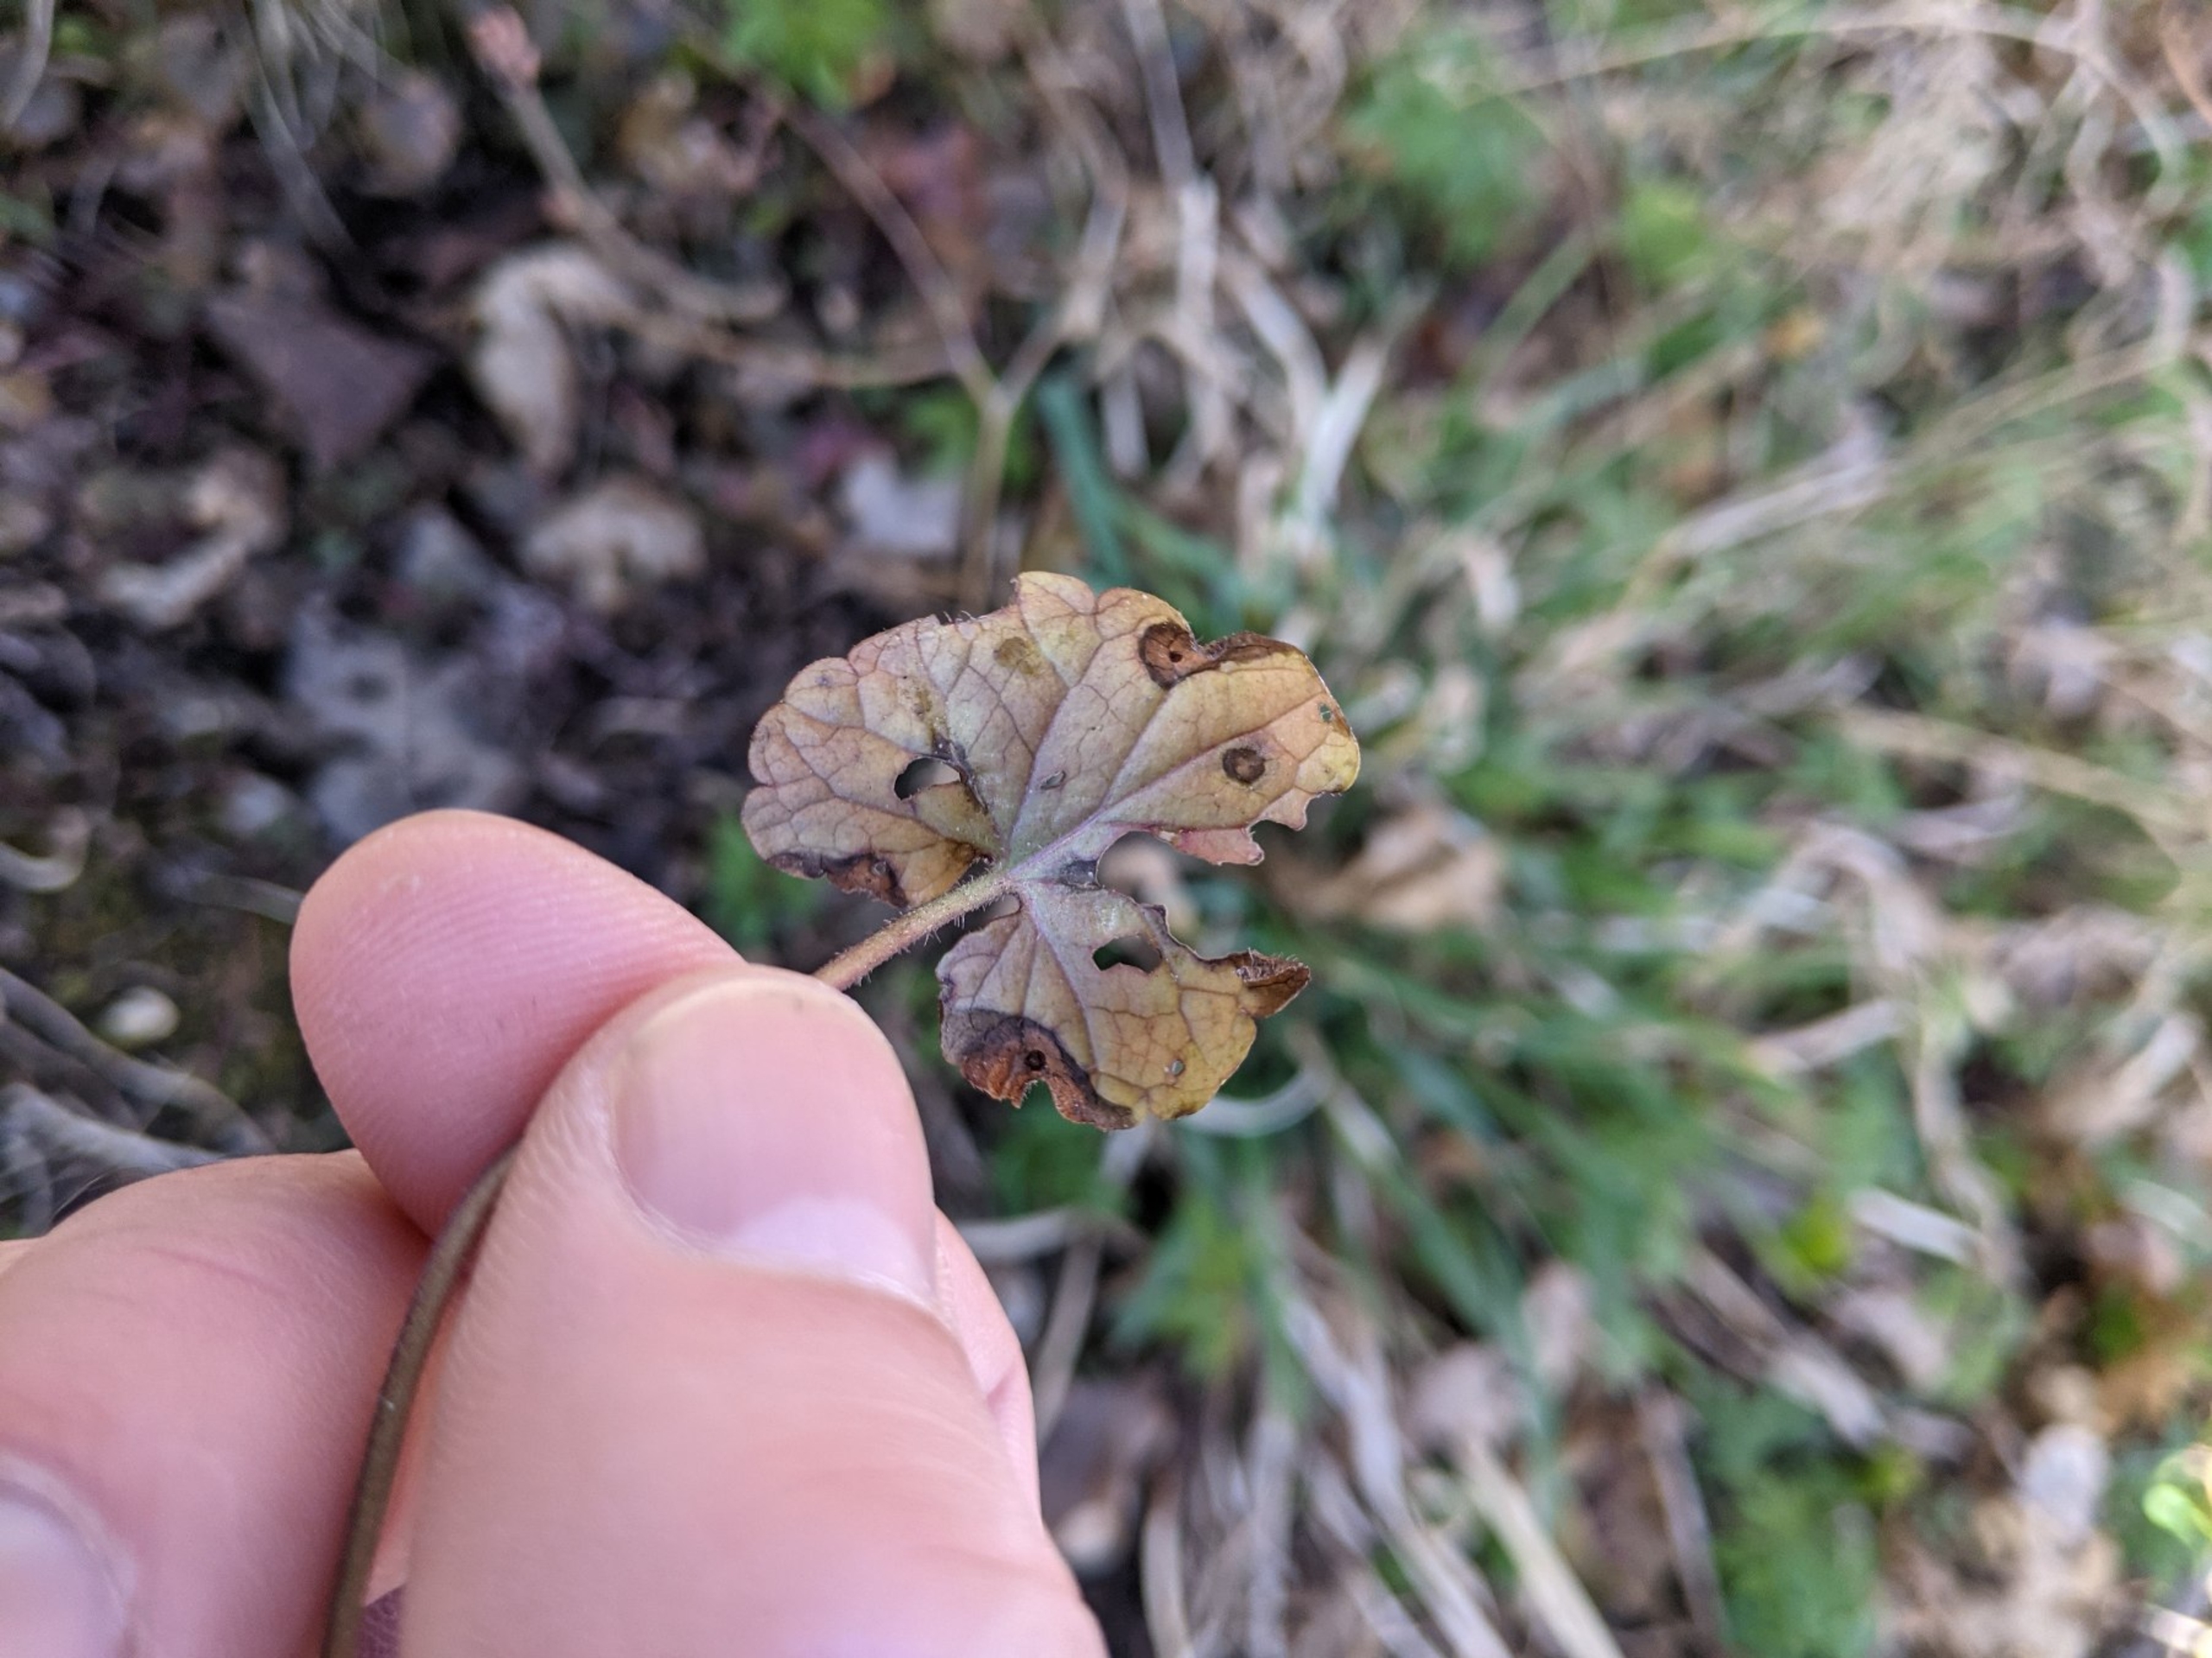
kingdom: Plantae
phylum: Tracheophyta
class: Magnoliopsida
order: Lamiales
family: Lamiaceae
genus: Glechoma
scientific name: Glechoma hederacea
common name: Korsknap
